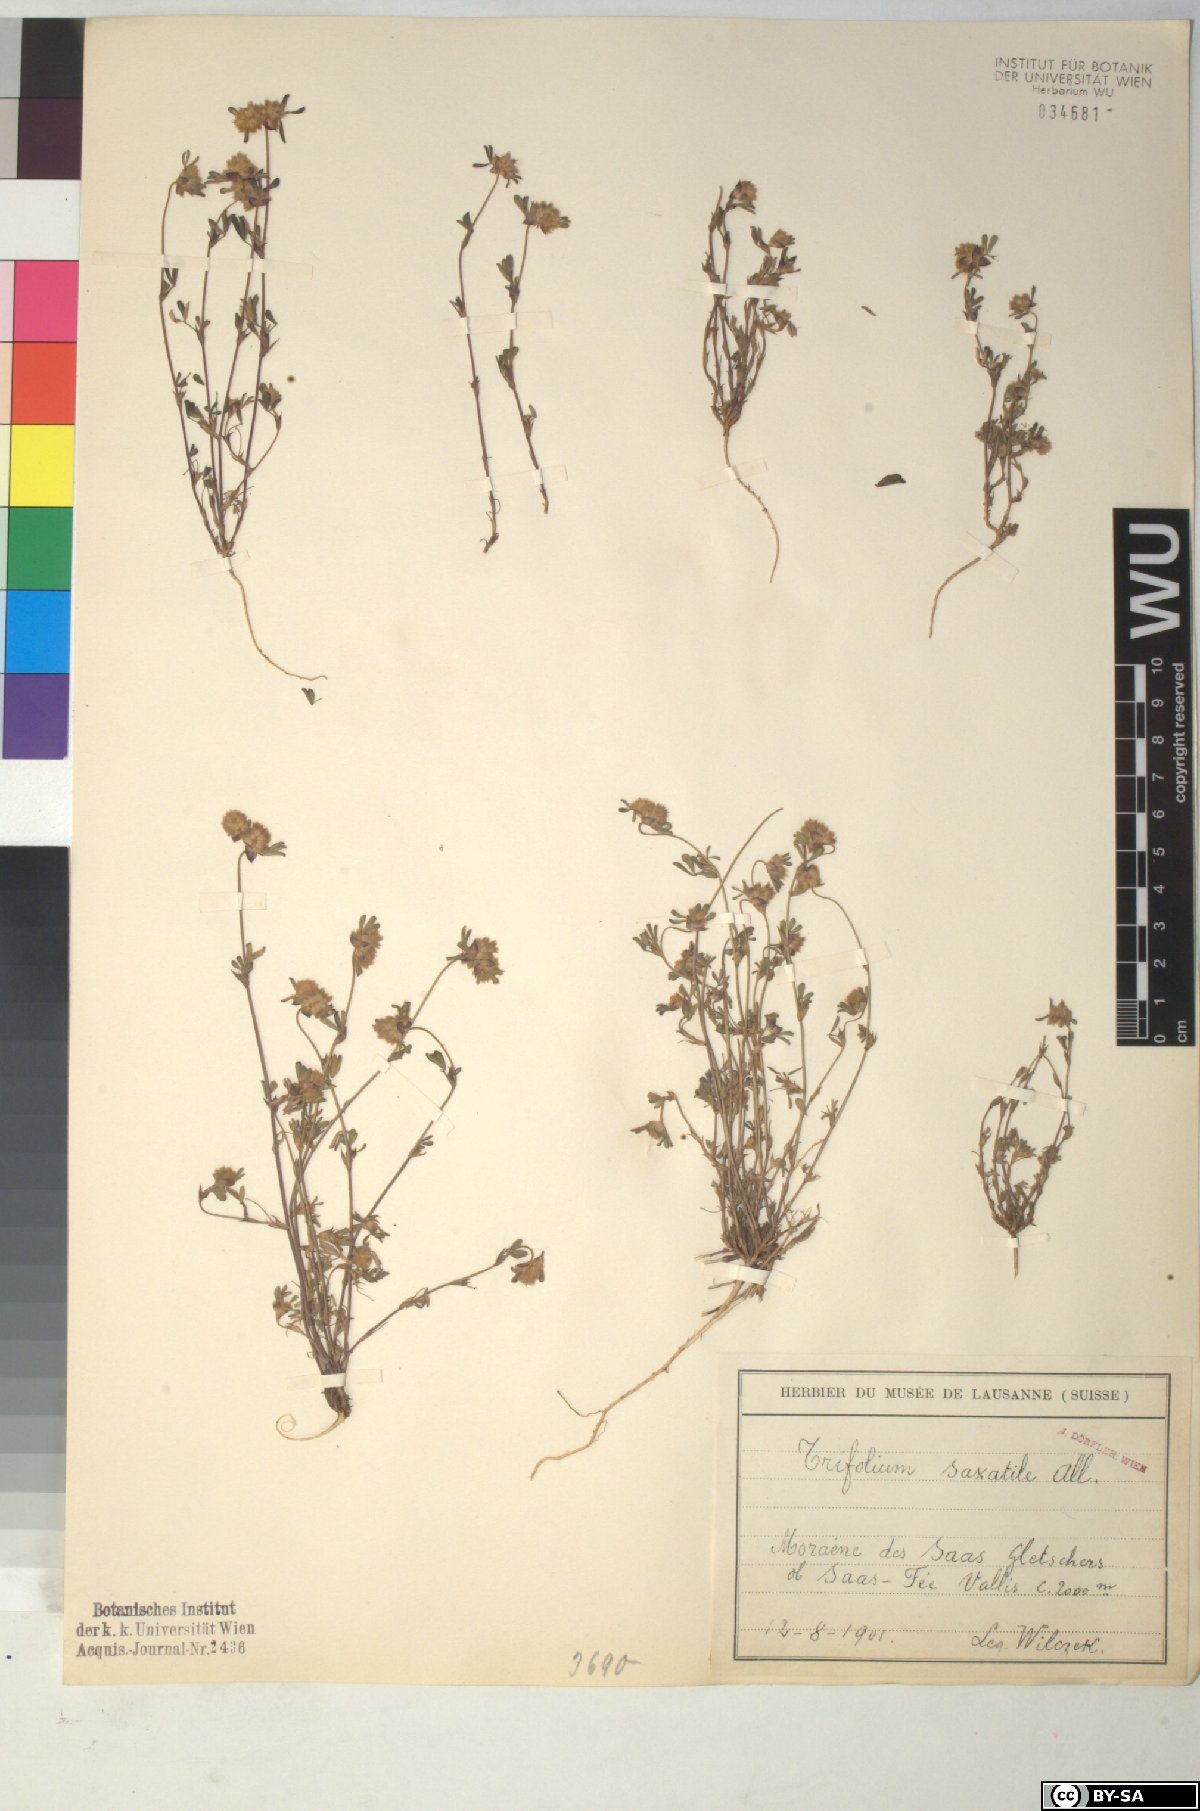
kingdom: Plantae
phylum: Tracheophyta
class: Magnoliopsida
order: Fabales
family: Fabaceae
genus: Trifolium
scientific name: Trifolium saxatile
